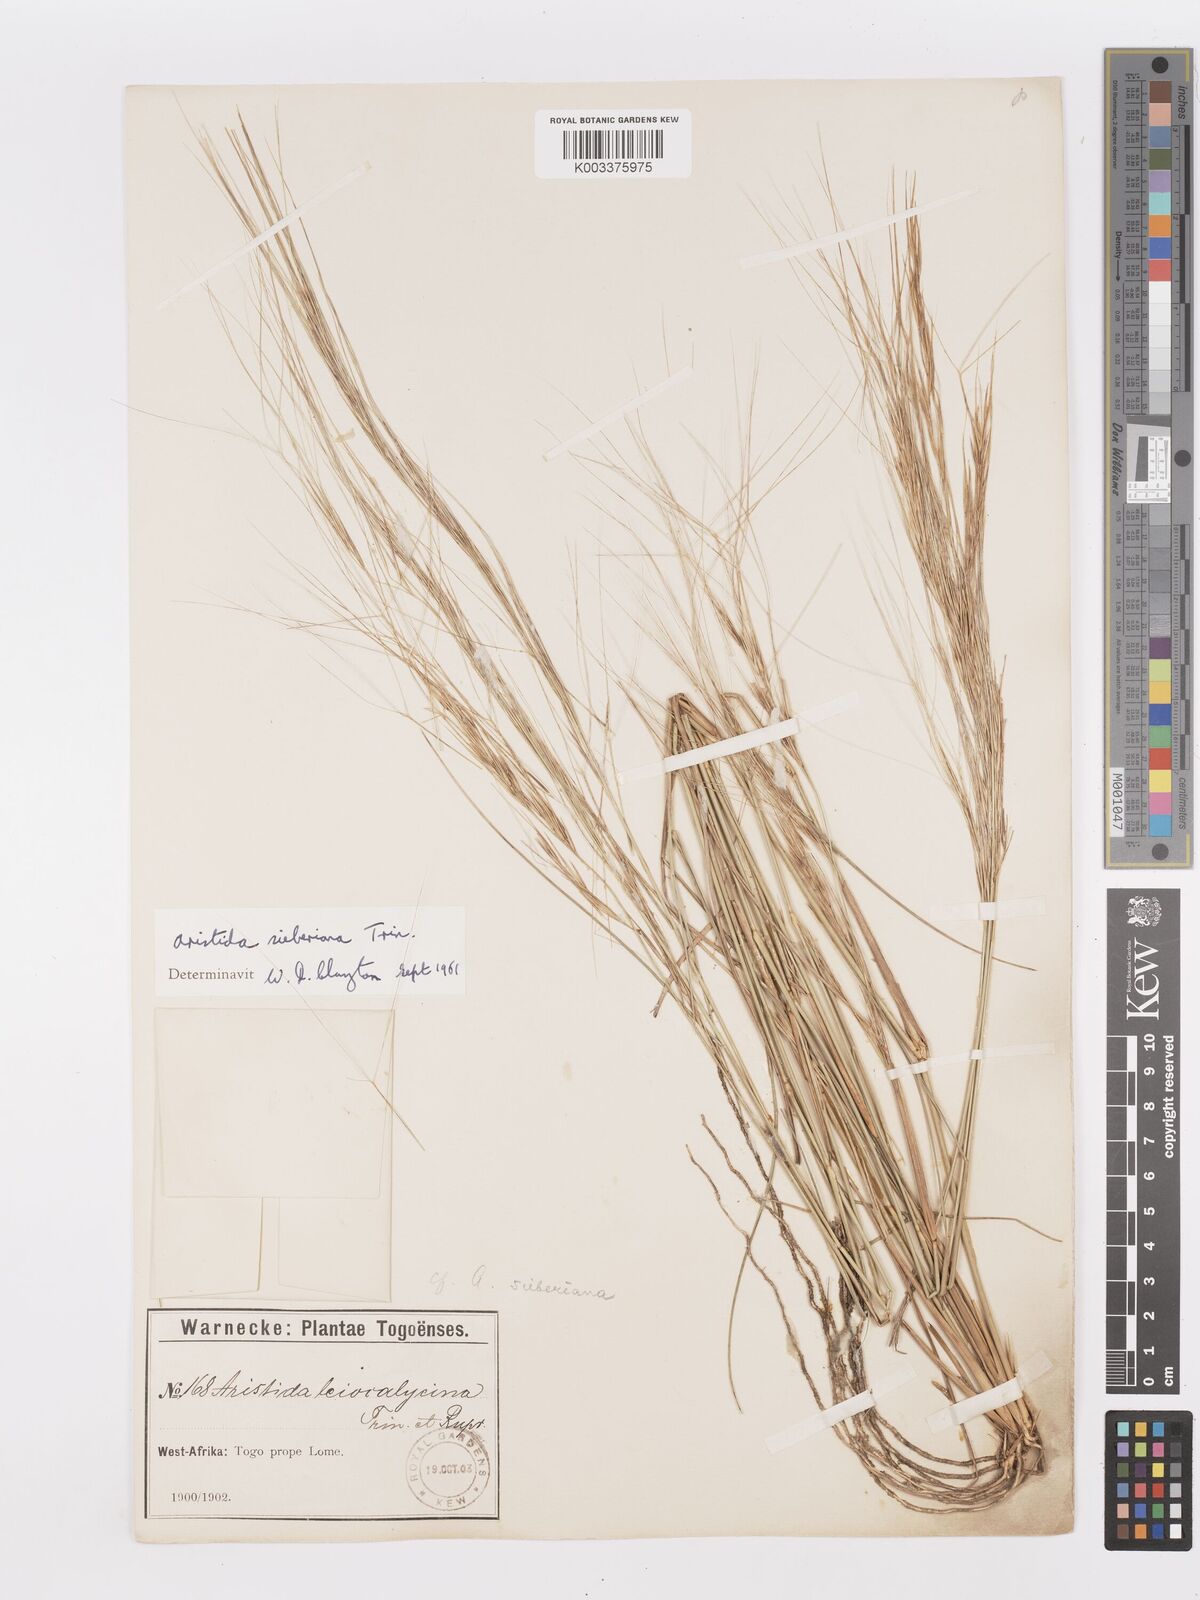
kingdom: Plantae
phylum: Tracheophyta
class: Liliopsida
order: Poales
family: Poaceae
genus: Aristida
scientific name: Aristida sieberiana
